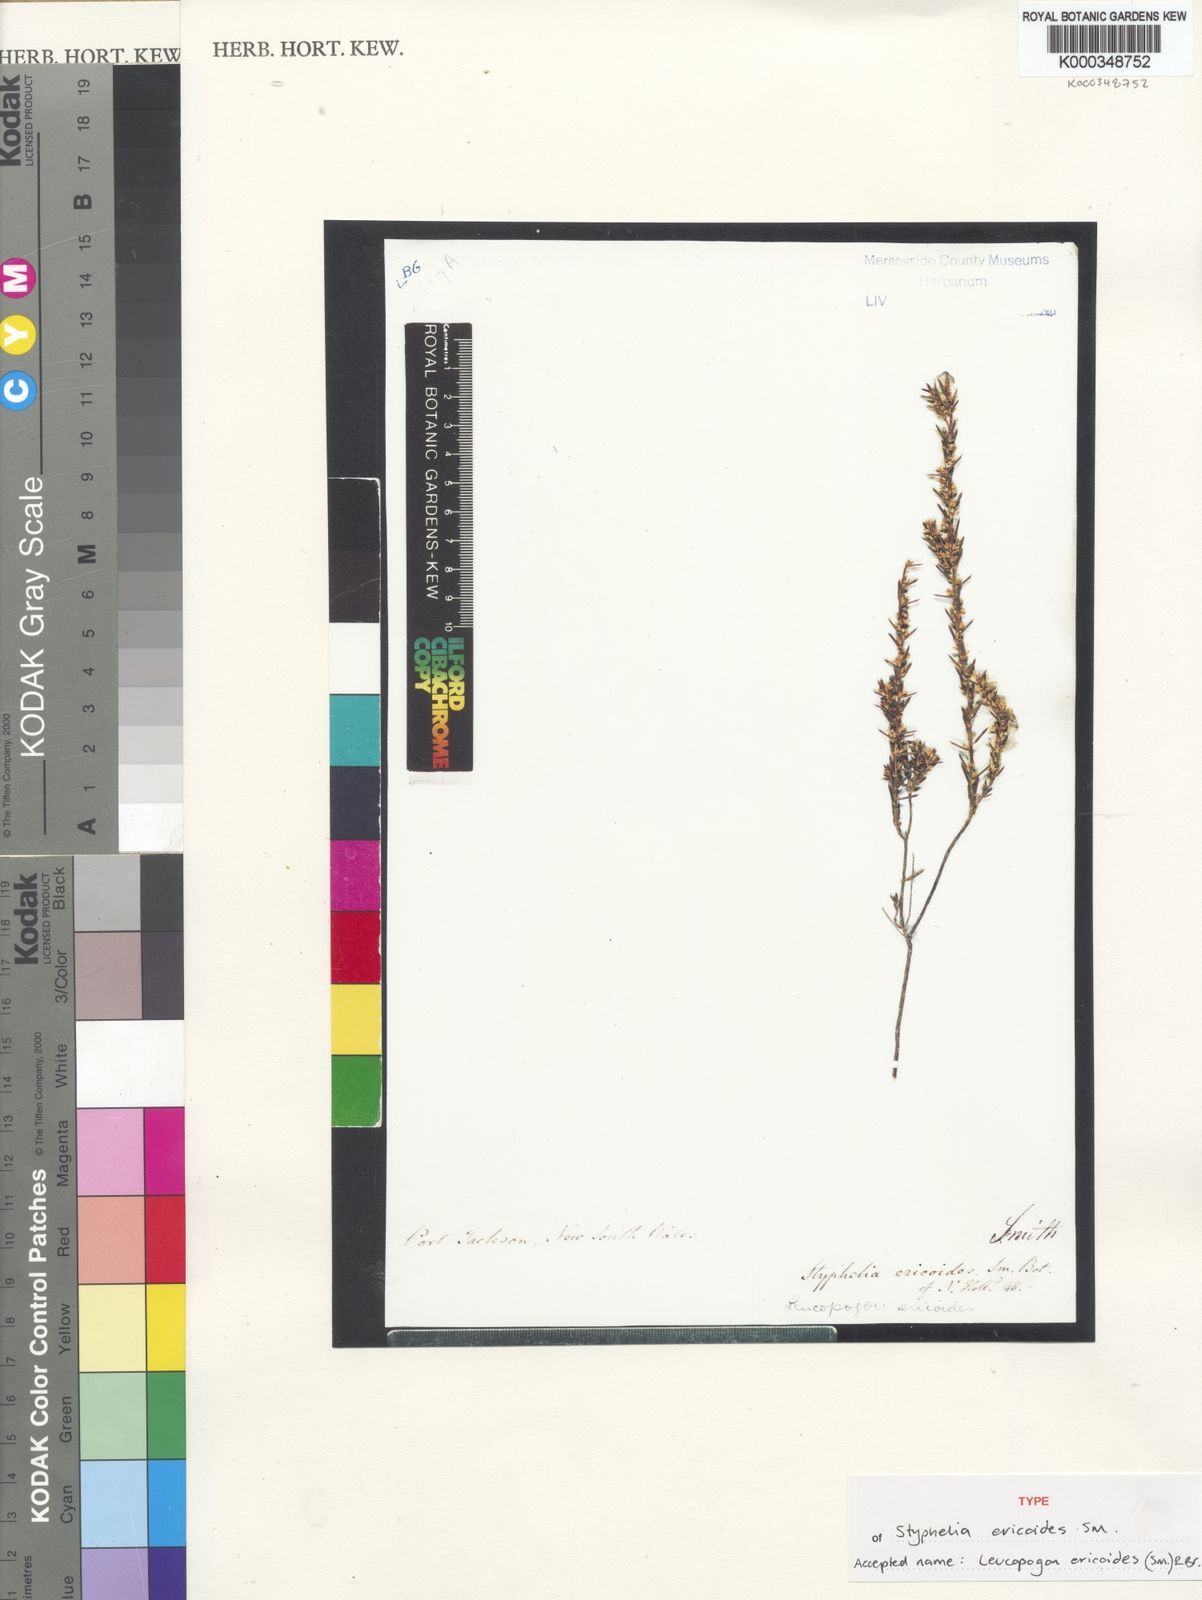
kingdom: Plantae
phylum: Tracheophyta
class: Magnoliopsida
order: Ericales
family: Ericaceae
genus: Styphelia
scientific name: Styphelia ericoides
